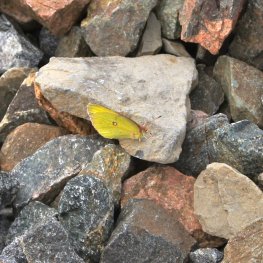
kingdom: Animalia
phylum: Arthropoda
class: Insecta
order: Lepidoptera
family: Pieridae
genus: Colias
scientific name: Colias interior
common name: Pink-edged Sulphur
